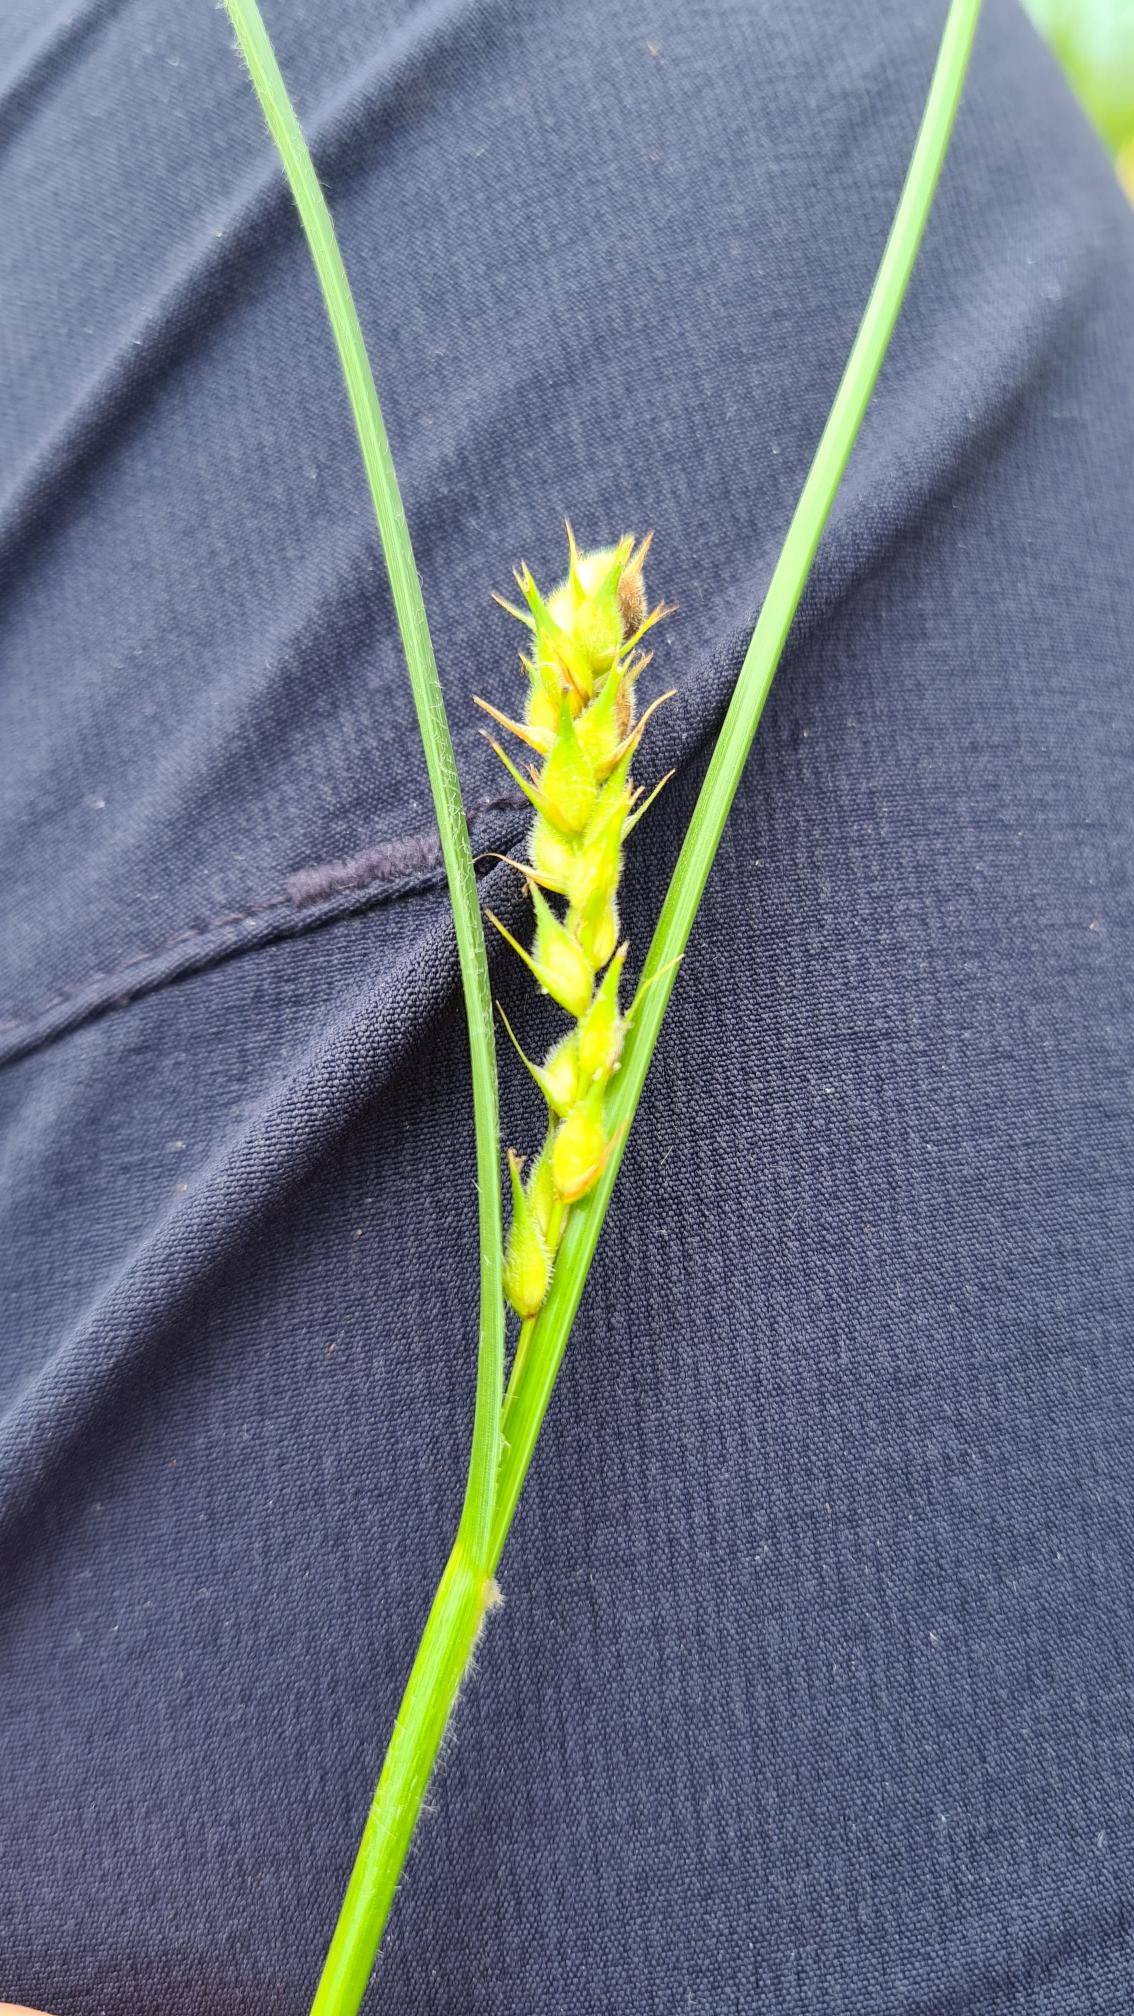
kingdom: Plantae
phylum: Tracheophyta
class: Liliopsida
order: Poales
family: Cyperaceae
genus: Carex
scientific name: Carex hirta
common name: Håret star
